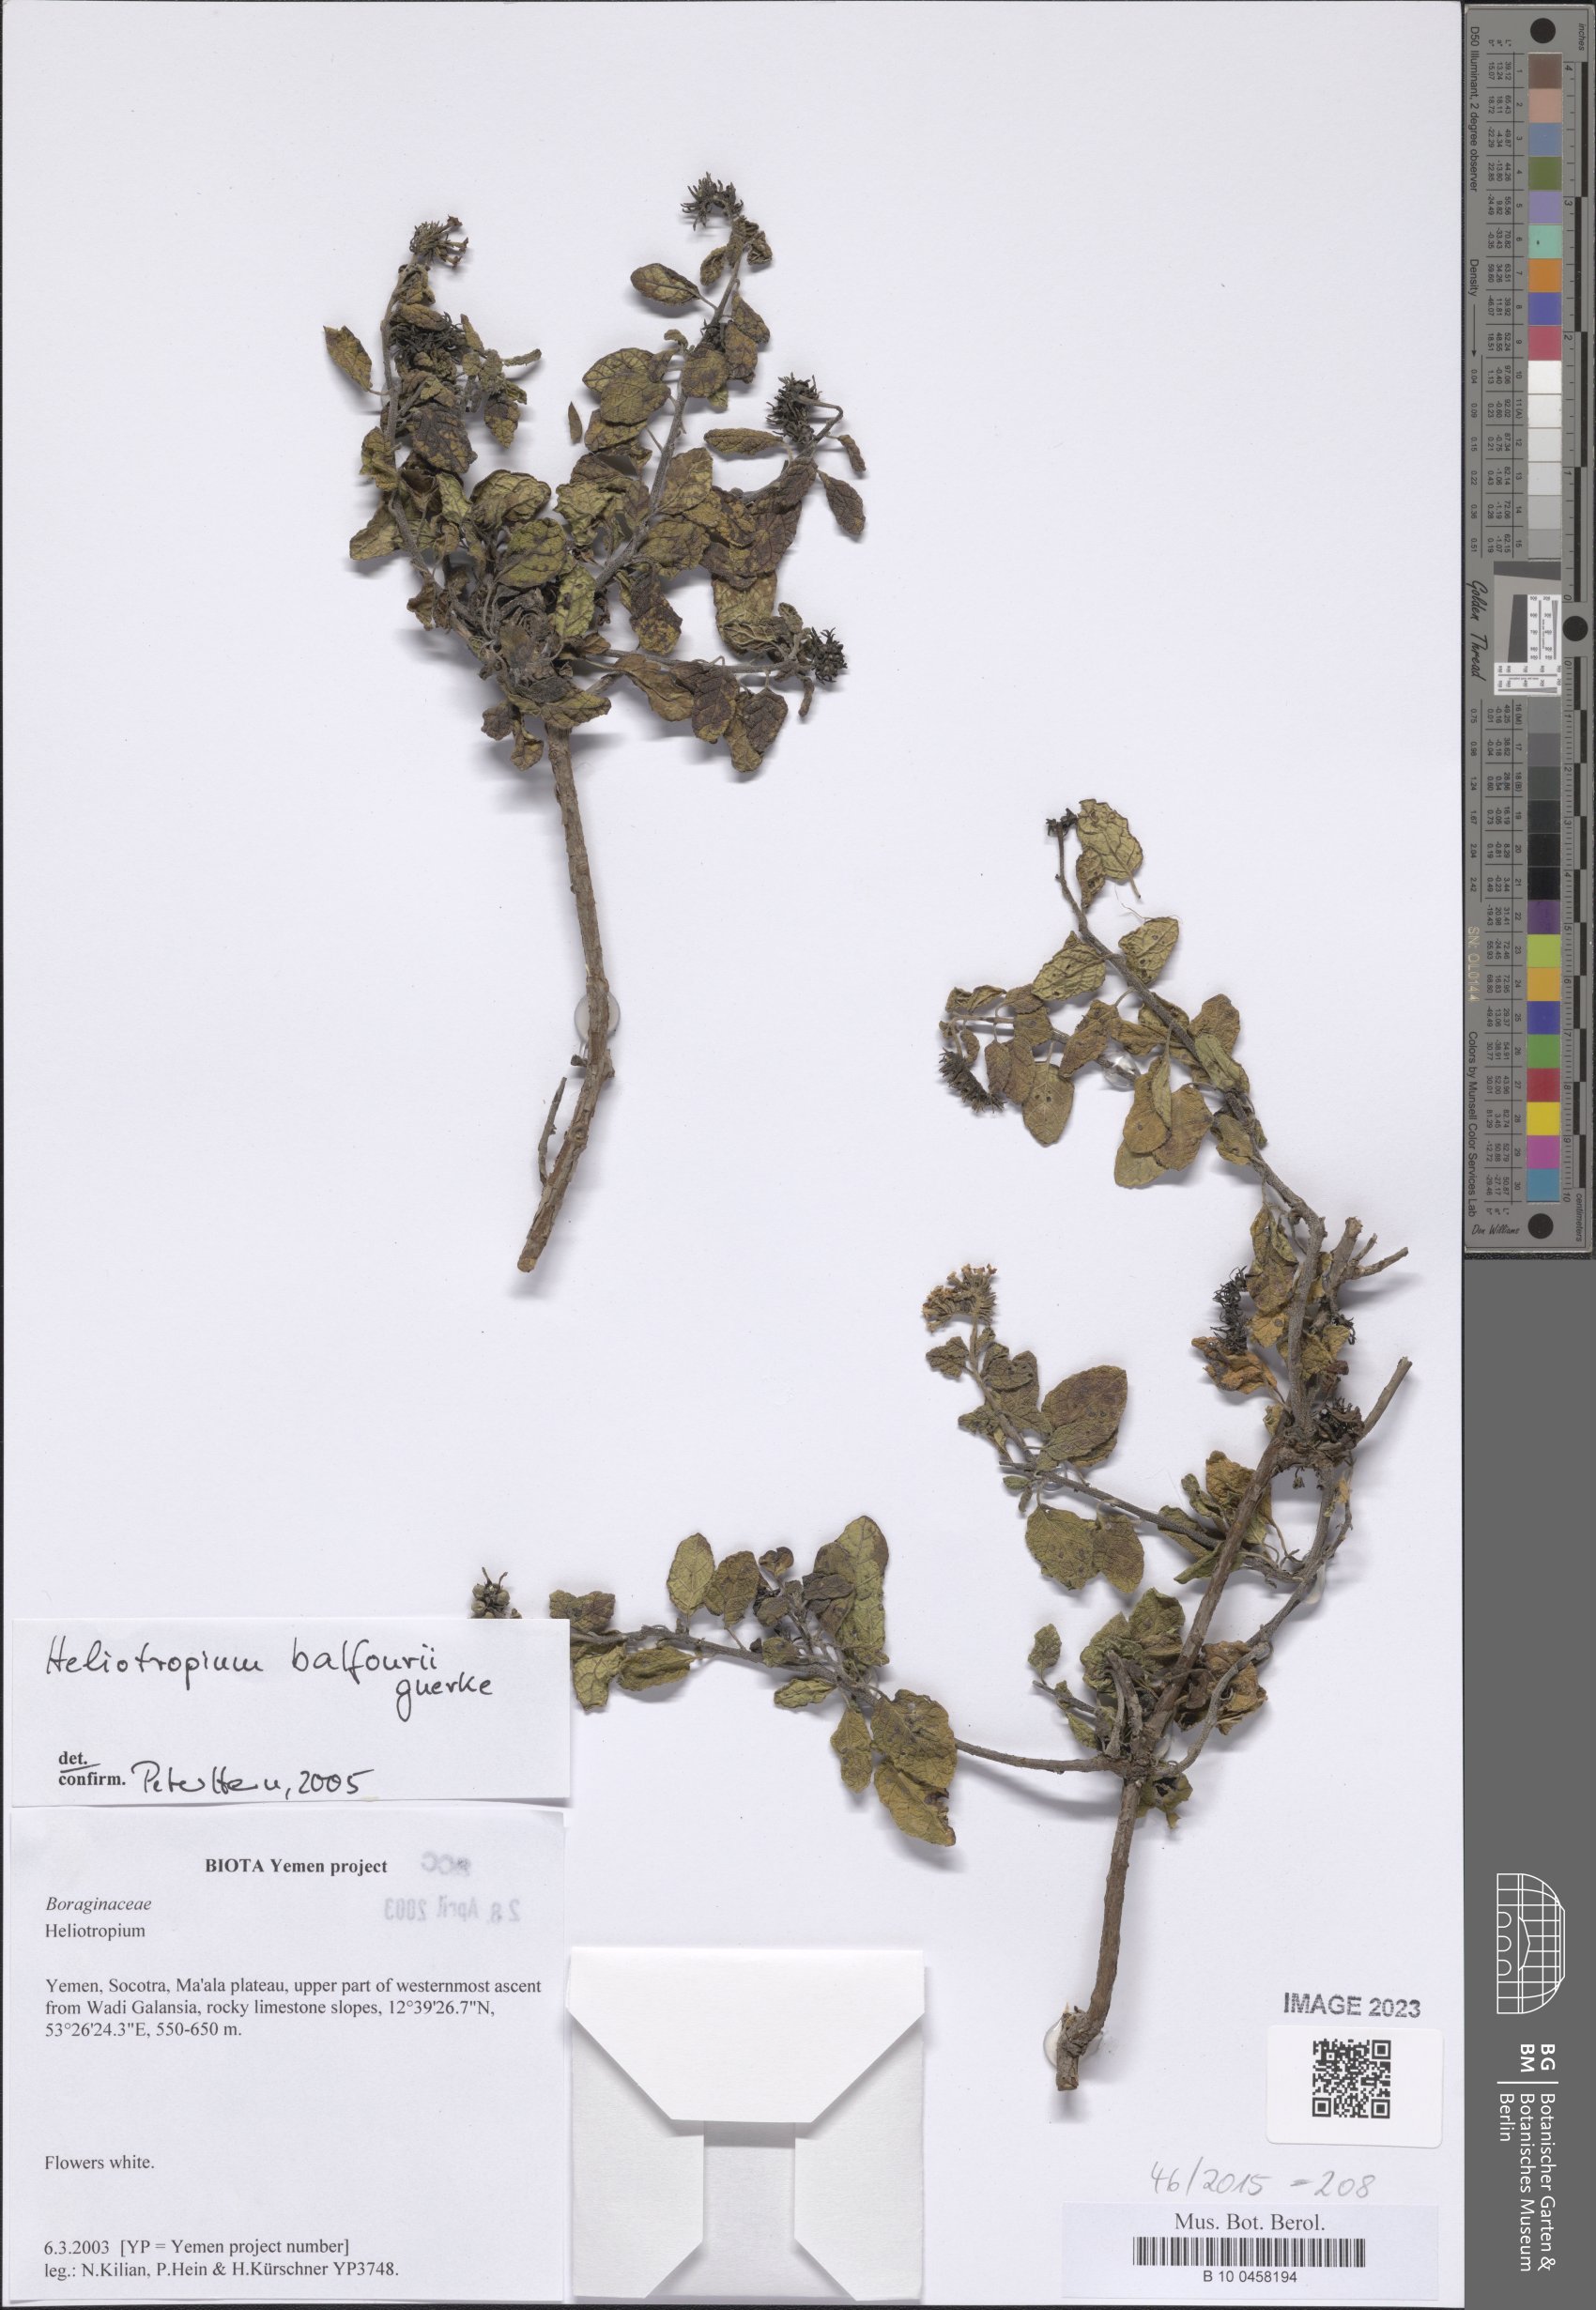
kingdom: Plantae
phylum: Tracheophyta
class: Magnoliopsida
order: Boraginales
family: Heliotropiaceae
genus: Heliotropium
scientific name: Heliotropium balfourii
